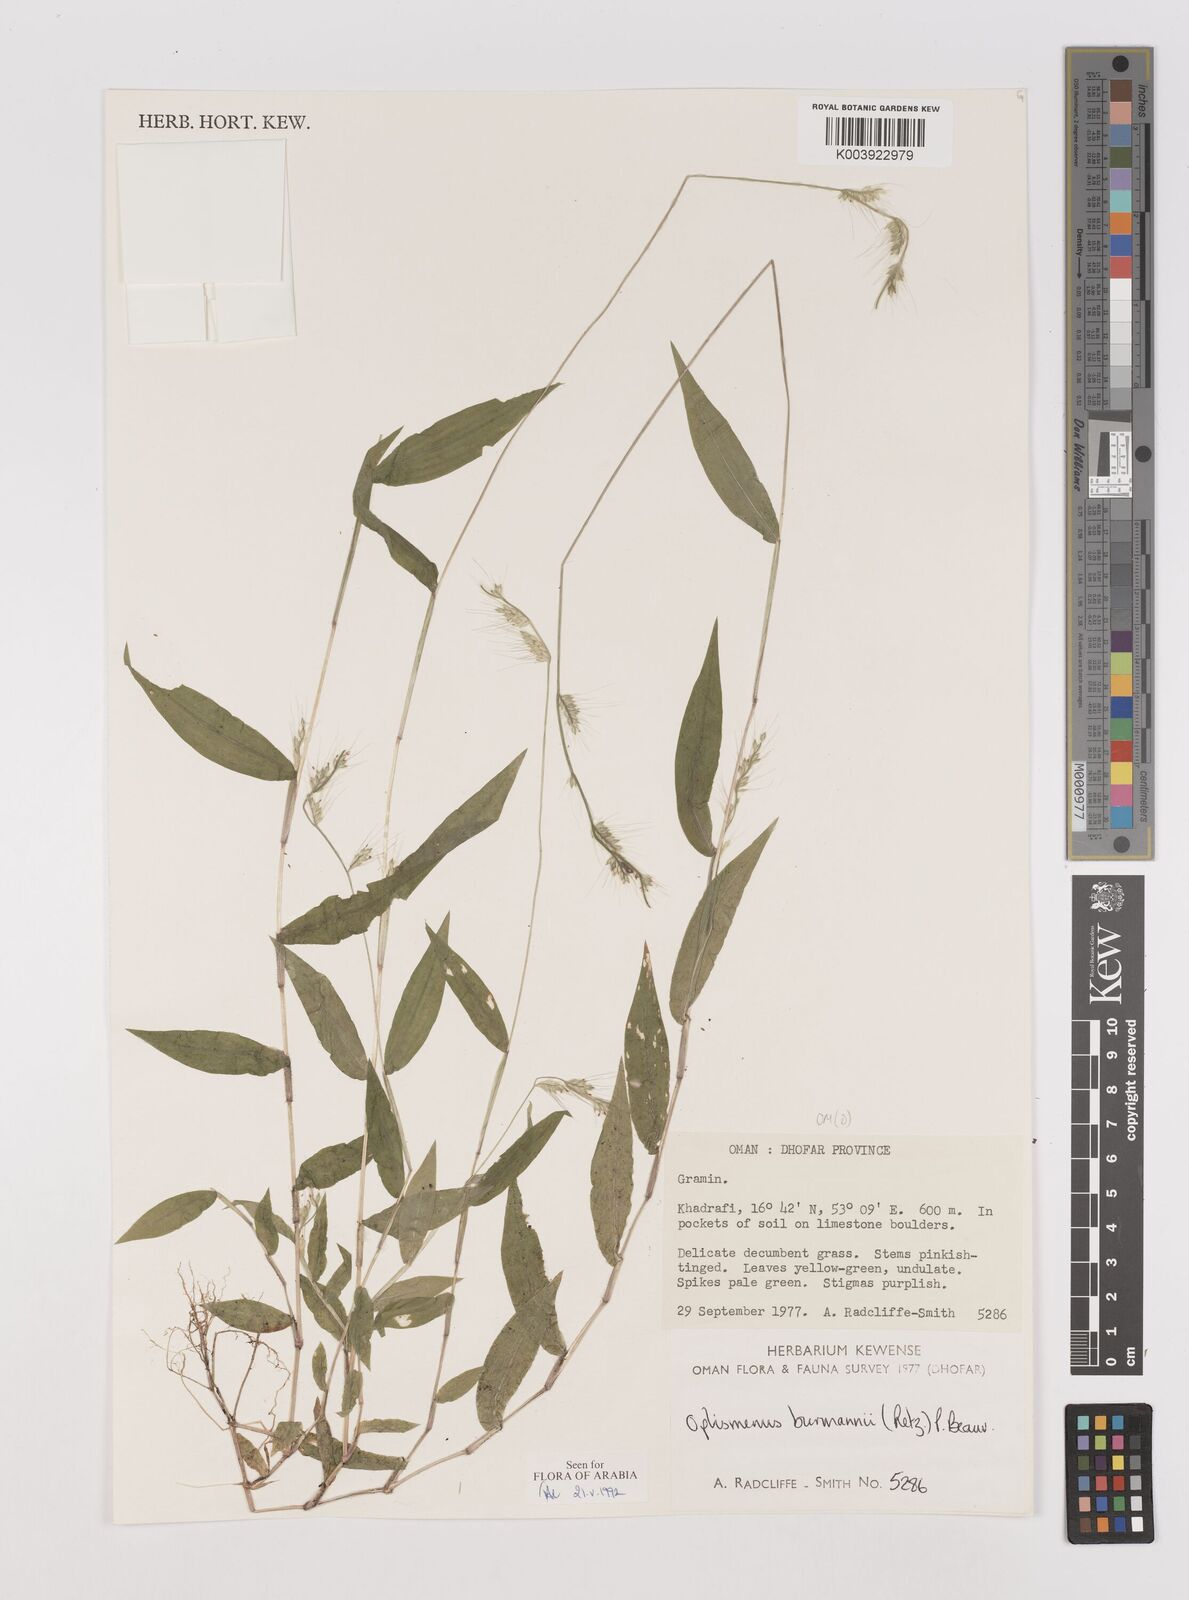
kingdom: Plantae
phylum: Tracheophyta
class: Liliopsida
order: Poales
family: Poaceae
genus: Oplismenus
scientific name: Oplismenus burmanni
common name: Burmann's basketgrass
